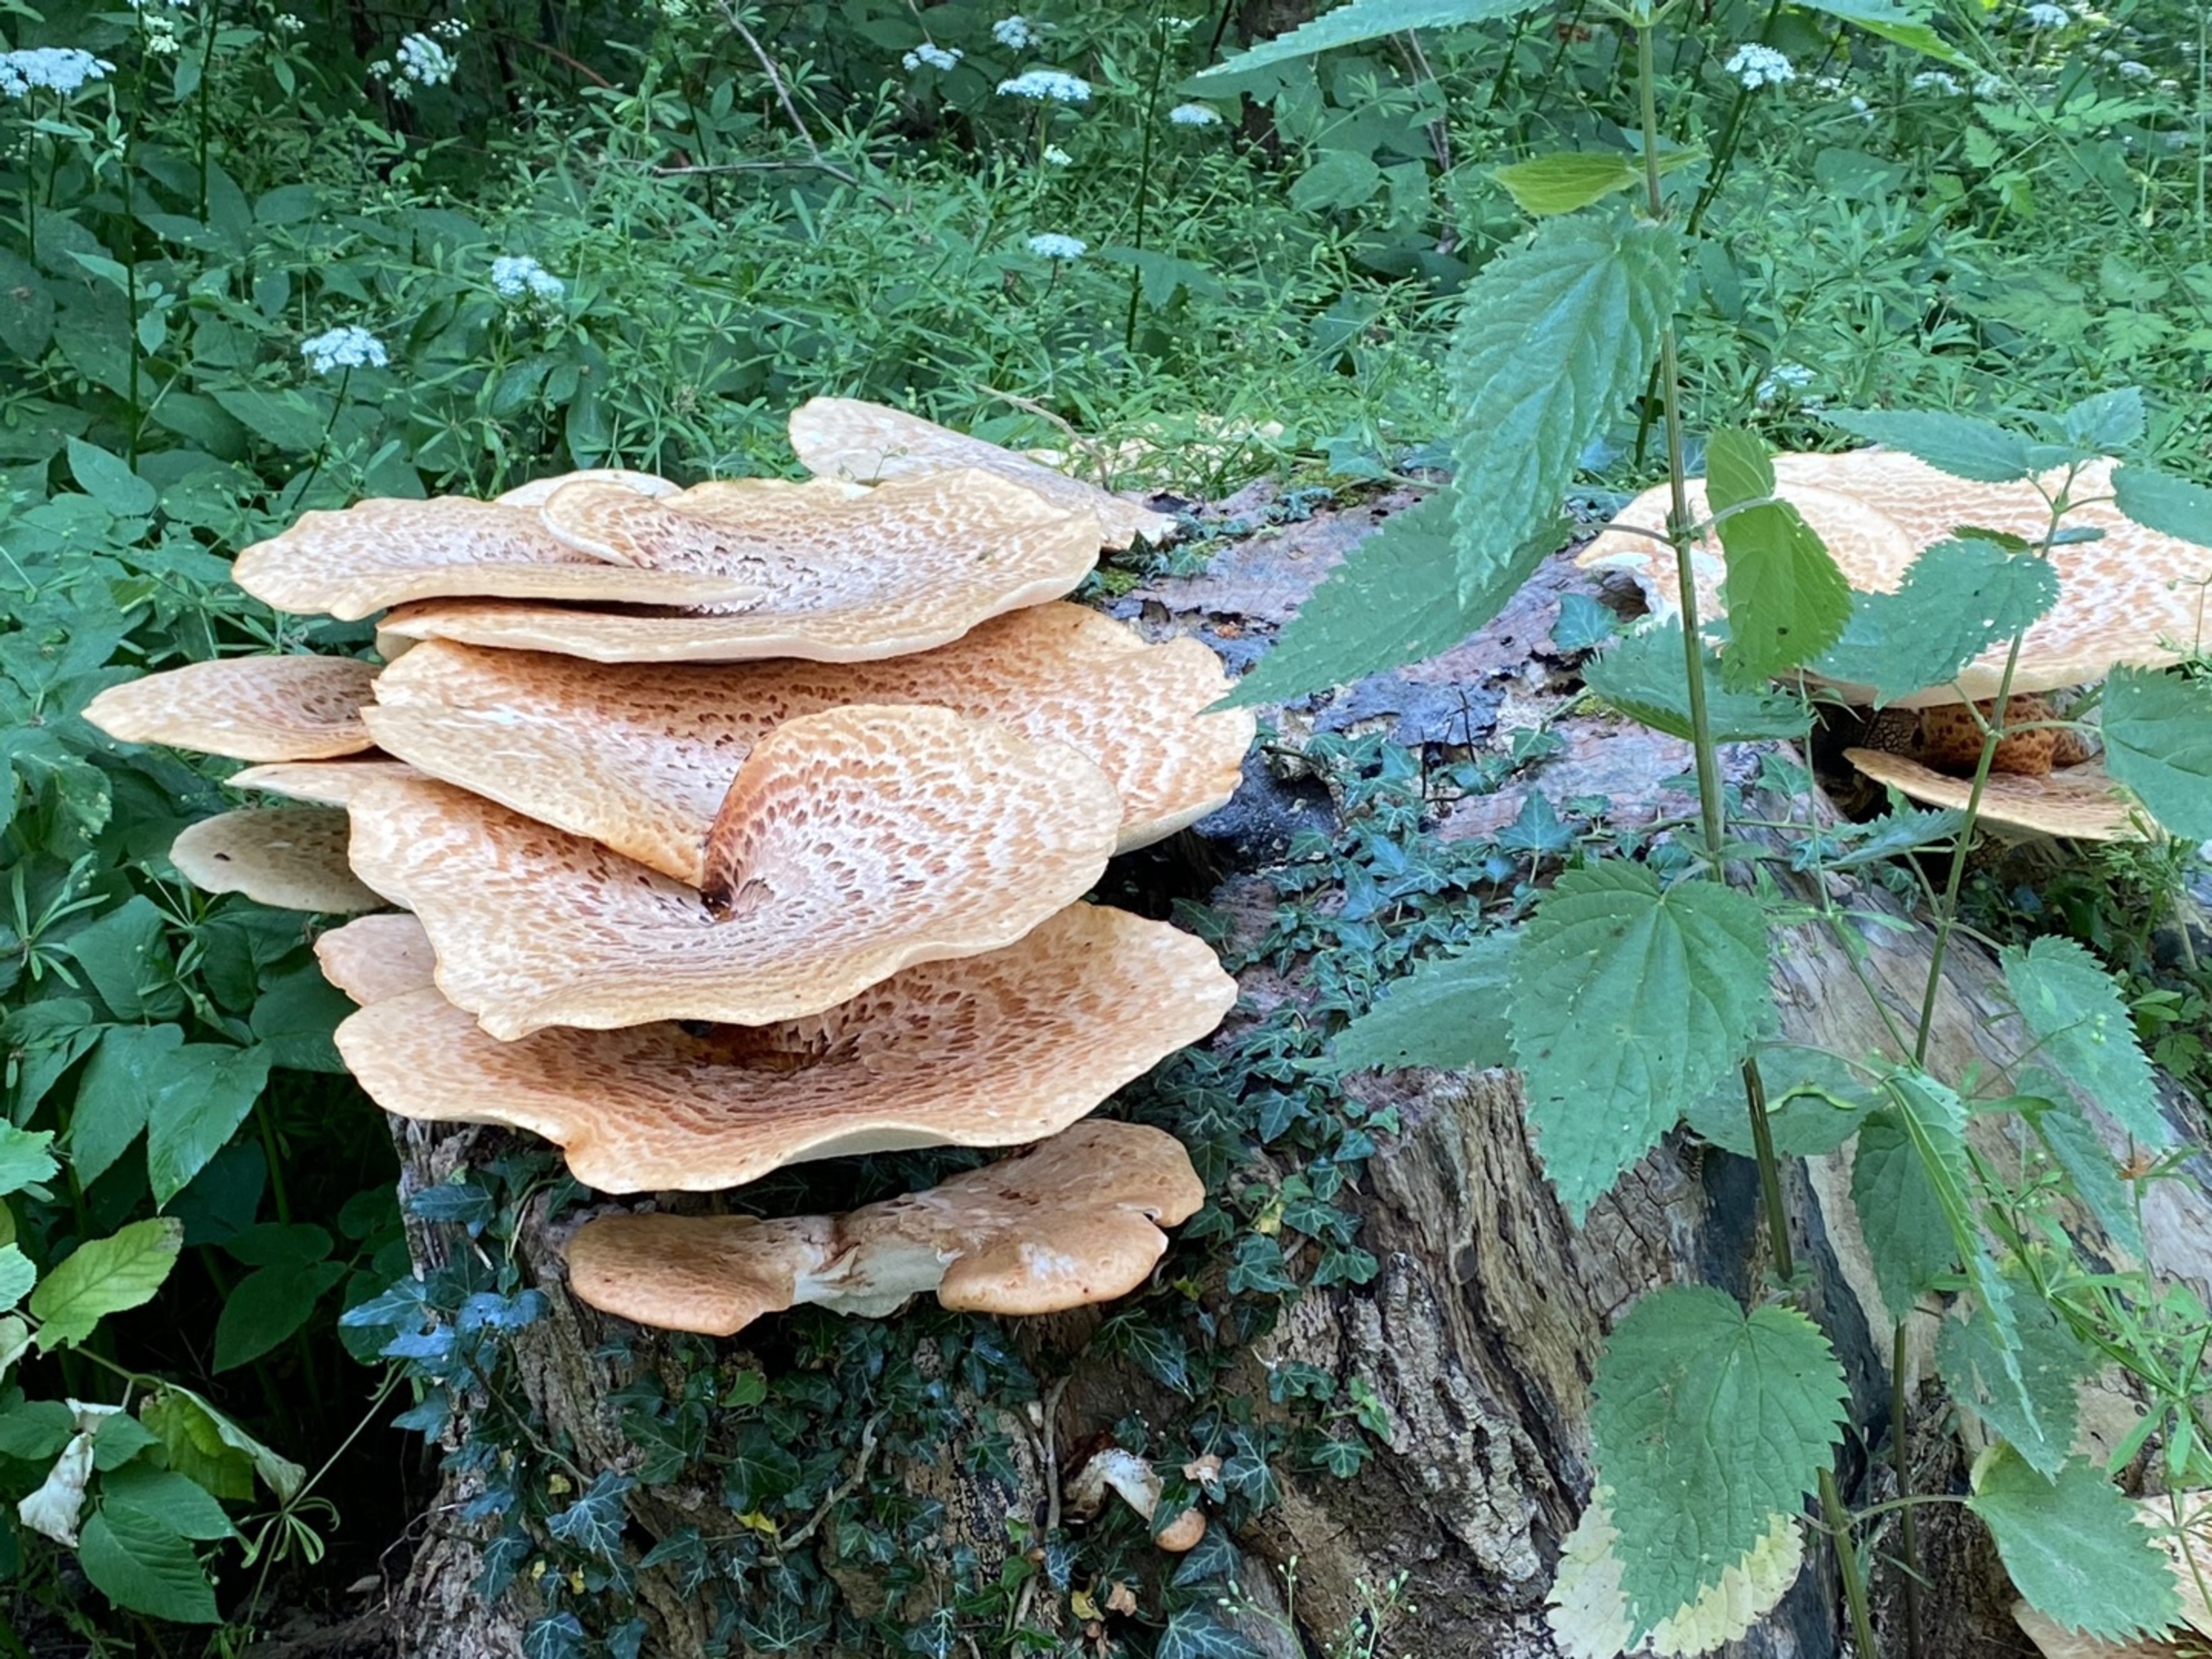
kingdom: Fungi
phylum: Basidiomycota
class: Agaricomycetes
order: Polyporales
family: Polyporaceae
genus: Cerioporus
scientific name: Cerioporus squamosus
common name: Skællet stilkporesvamp
